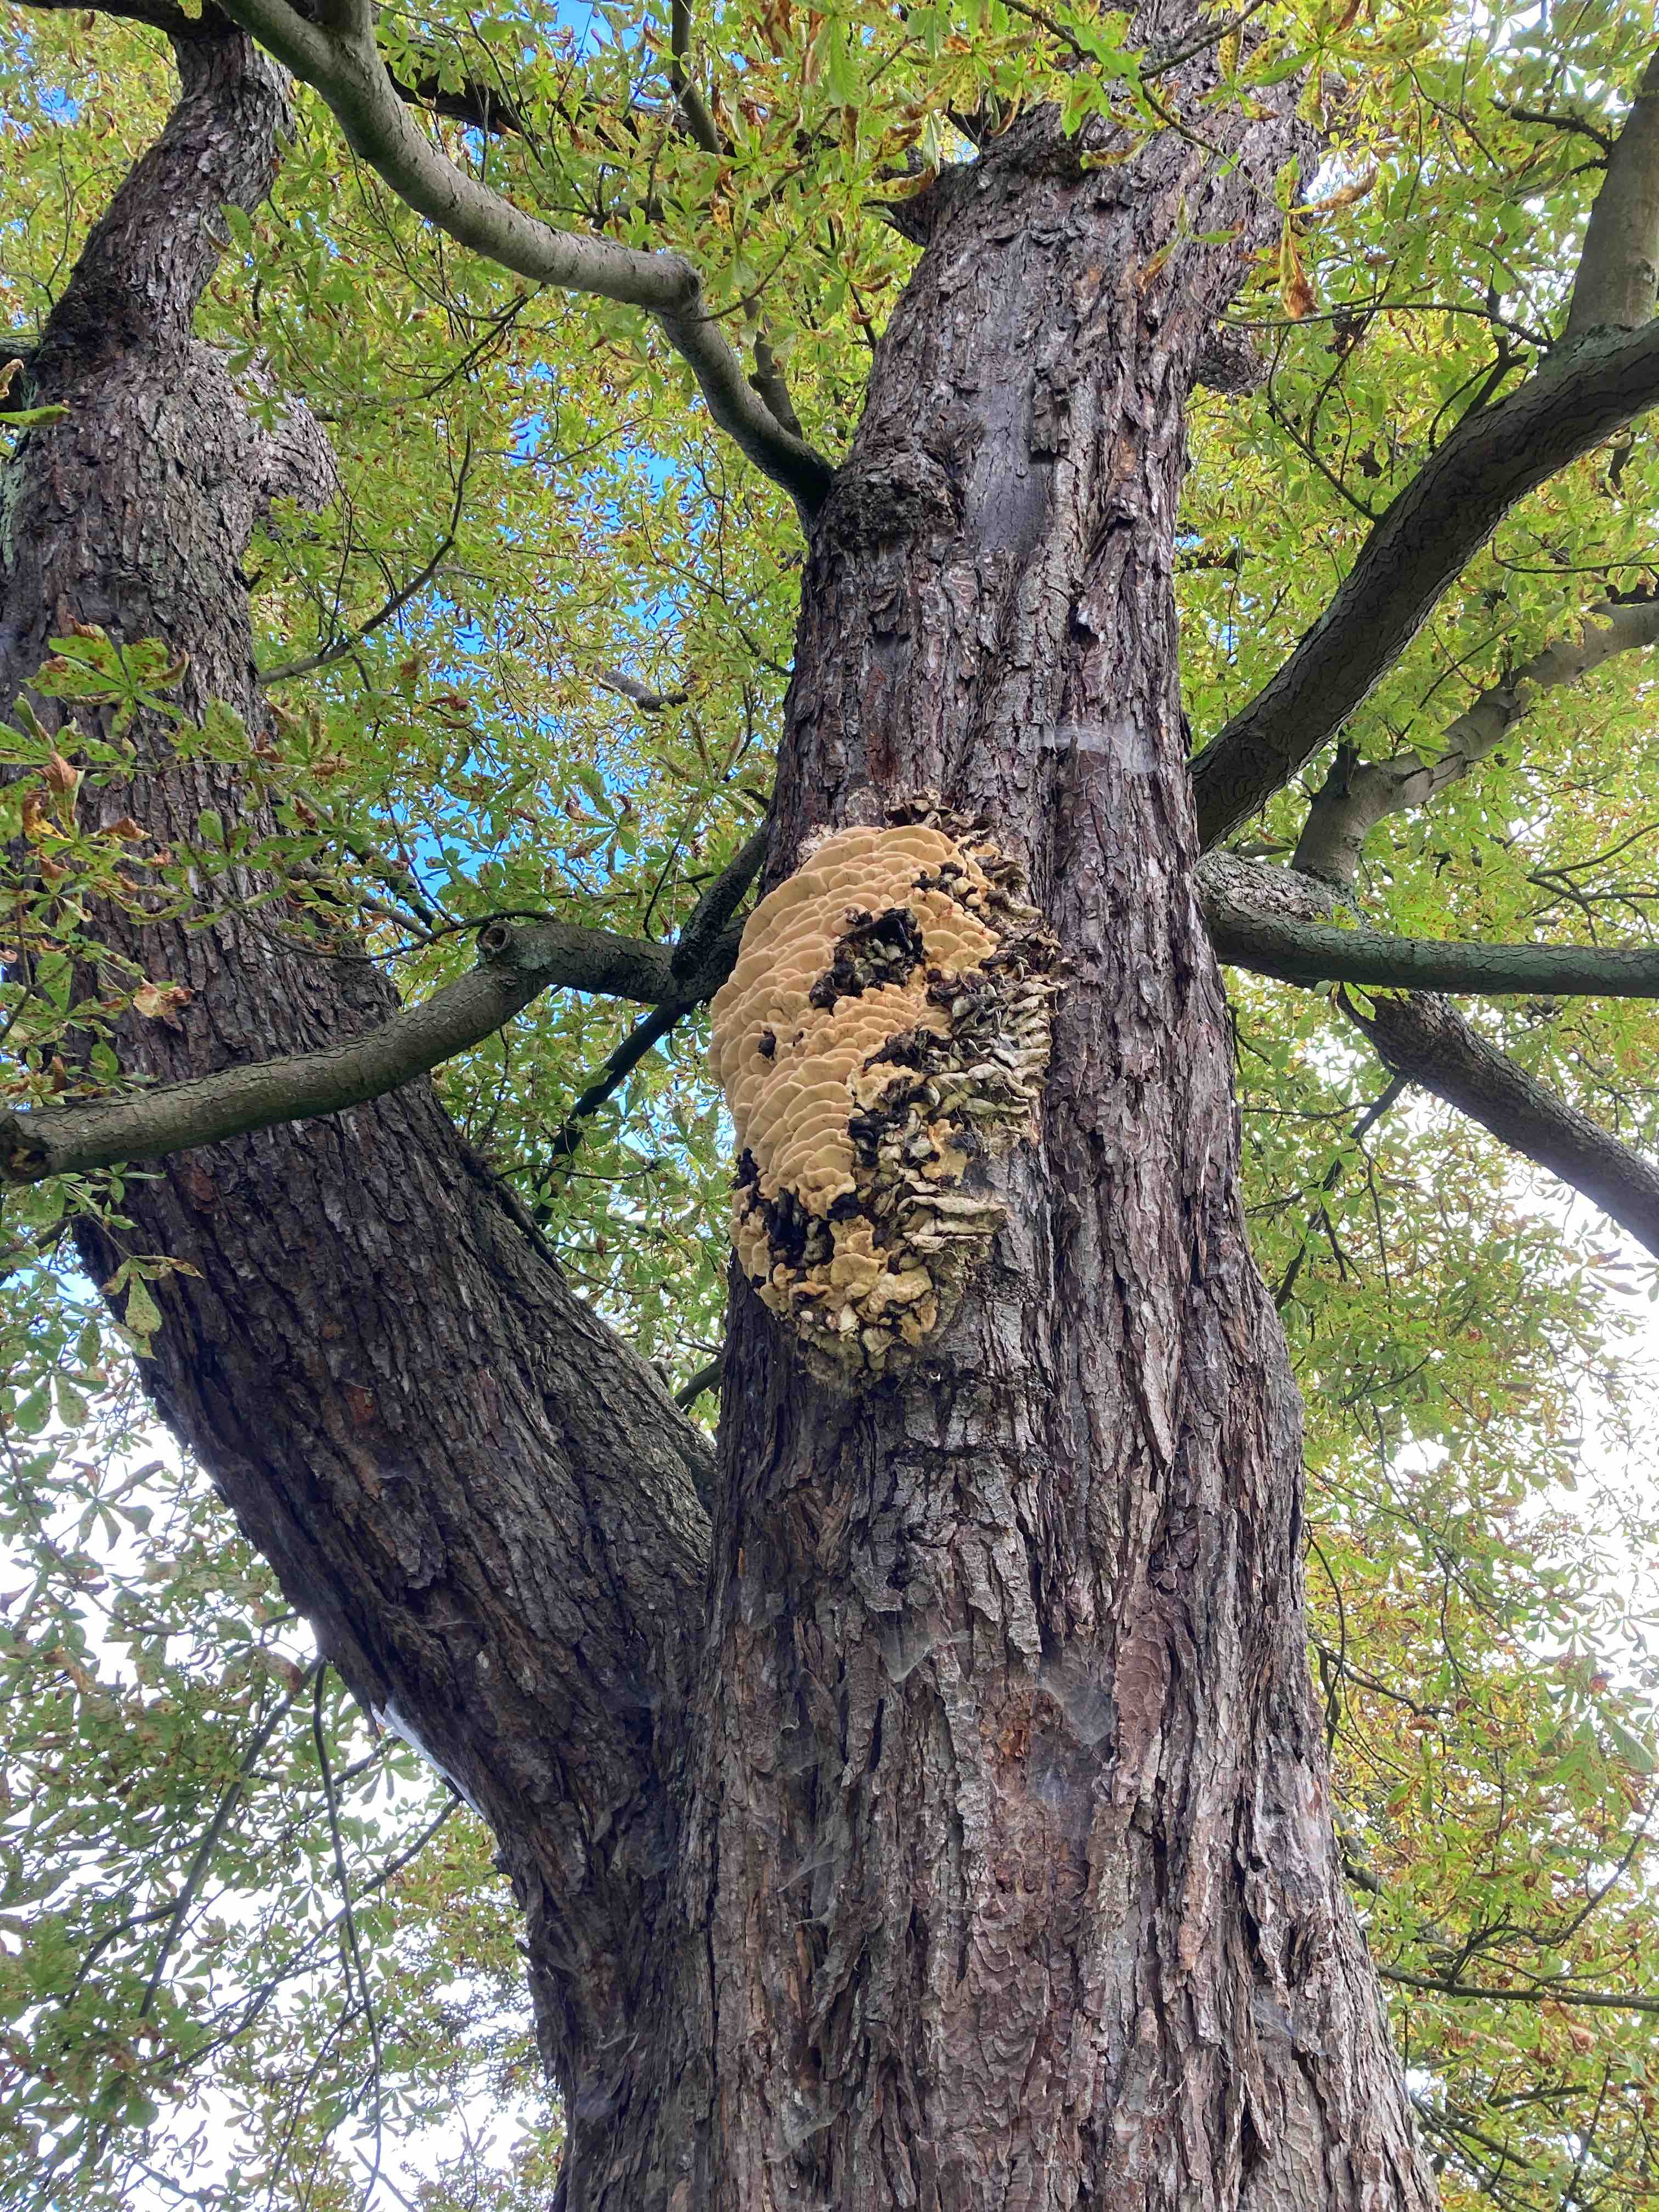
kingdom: Fungi
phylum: Basidiomycota
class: Agaricomycetes
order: Polyporales
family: Meruliaceae
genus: Climacodon
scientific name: Climacodon septentrionalis
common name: kæmpepigsvamp
